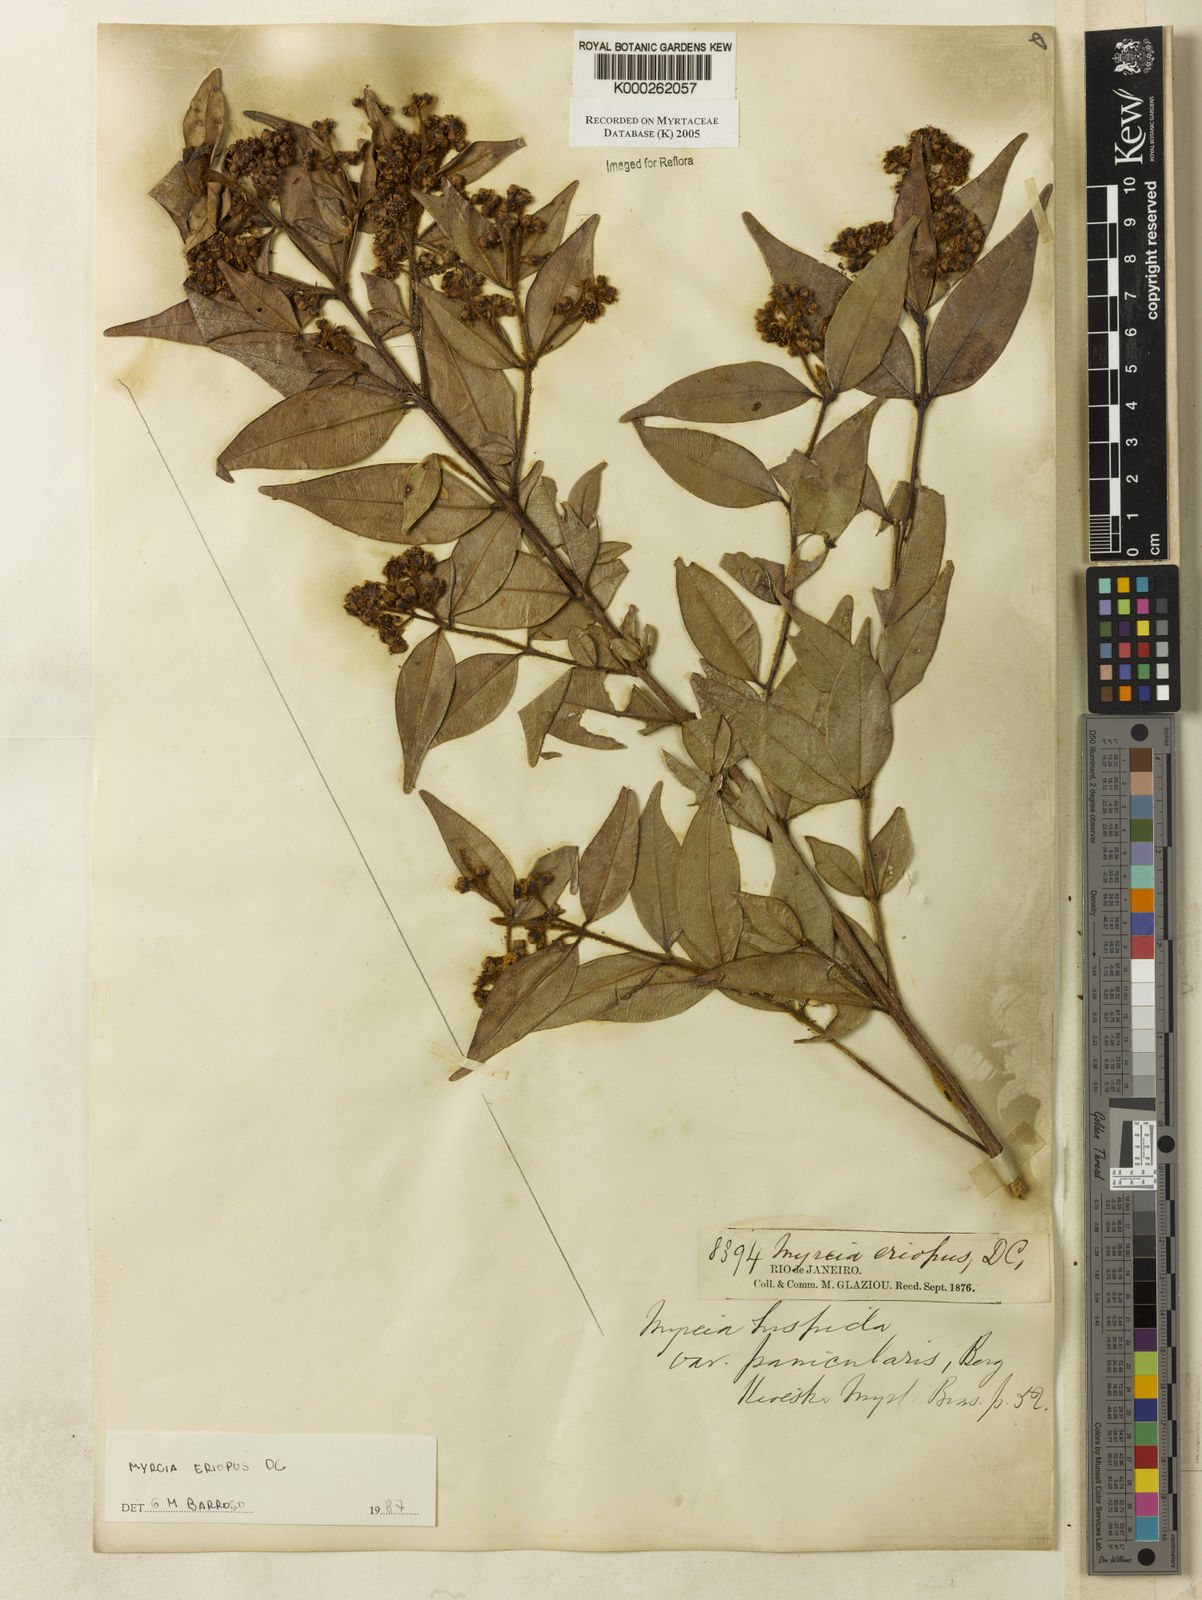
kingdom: Plantae
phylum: Tracheophyta
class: Magnoliopsida
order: Myrtales
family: Myrtaceae
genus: Myrcia
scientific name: Myrcia eriopus
